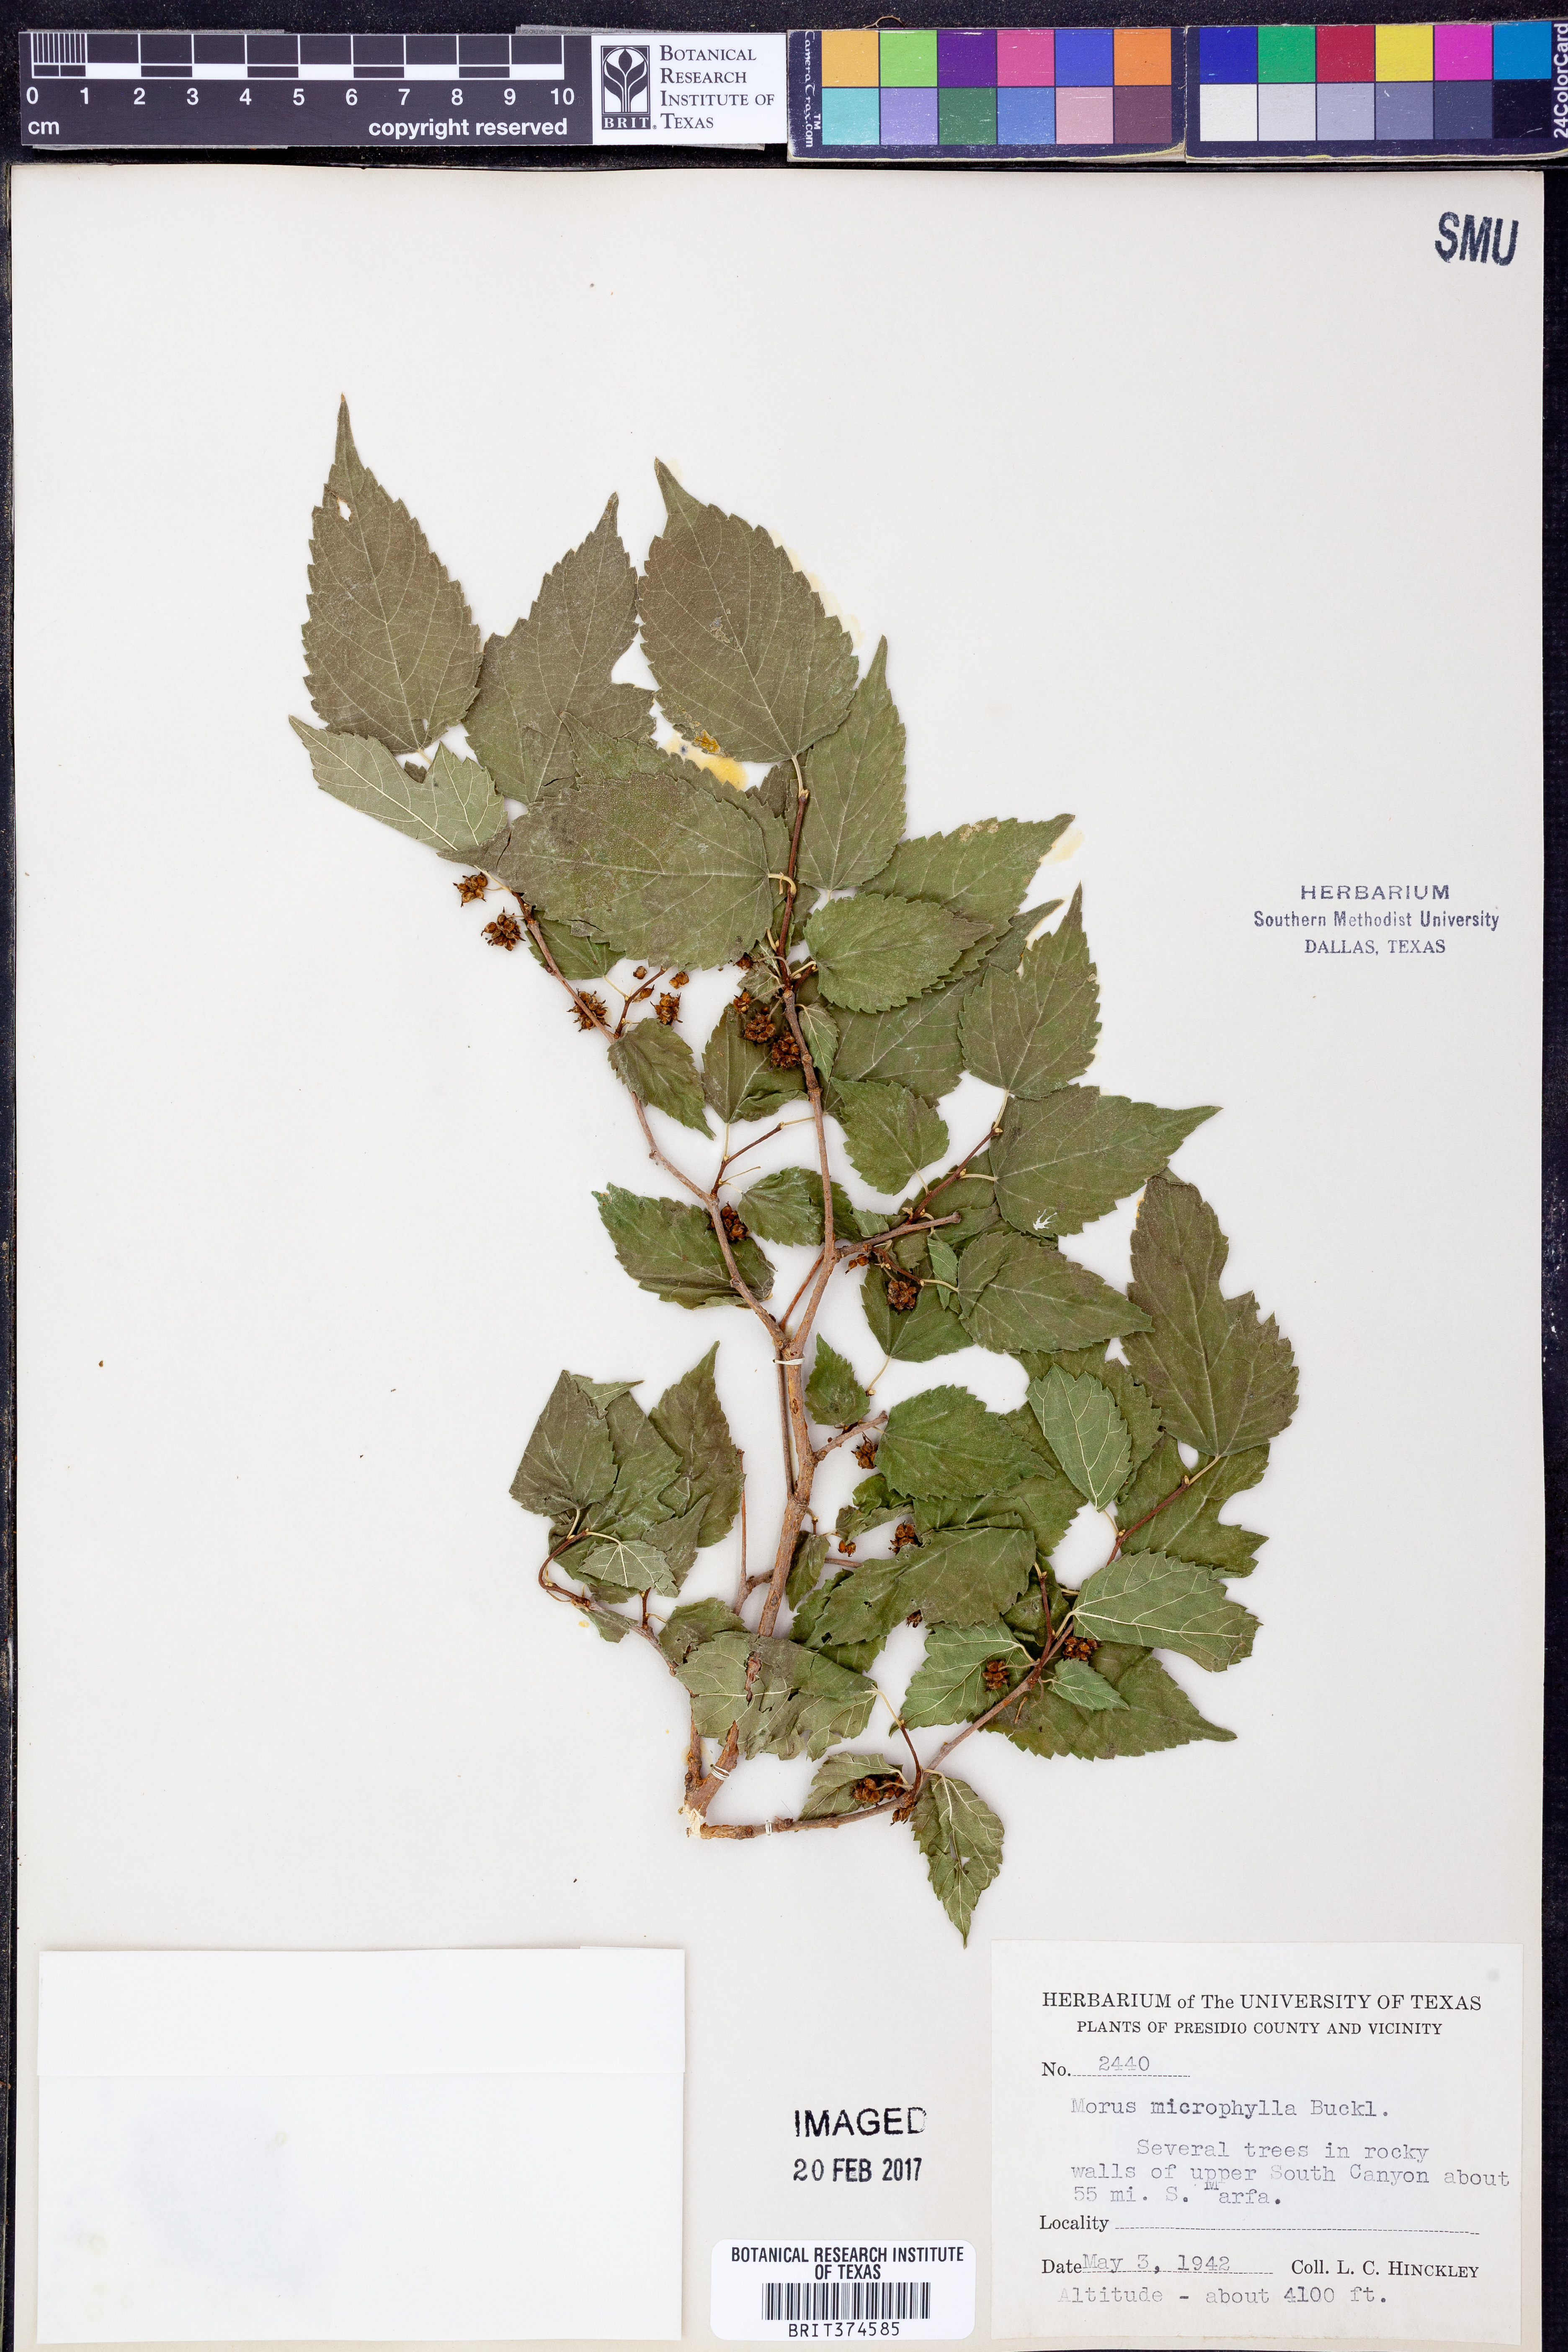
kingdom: Plantae
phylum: Tracheophyta
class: Magnoliopsida
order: Rosales
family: Moraceae
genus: Morus
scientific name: Morus microphylla
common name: Mexican mulberry
